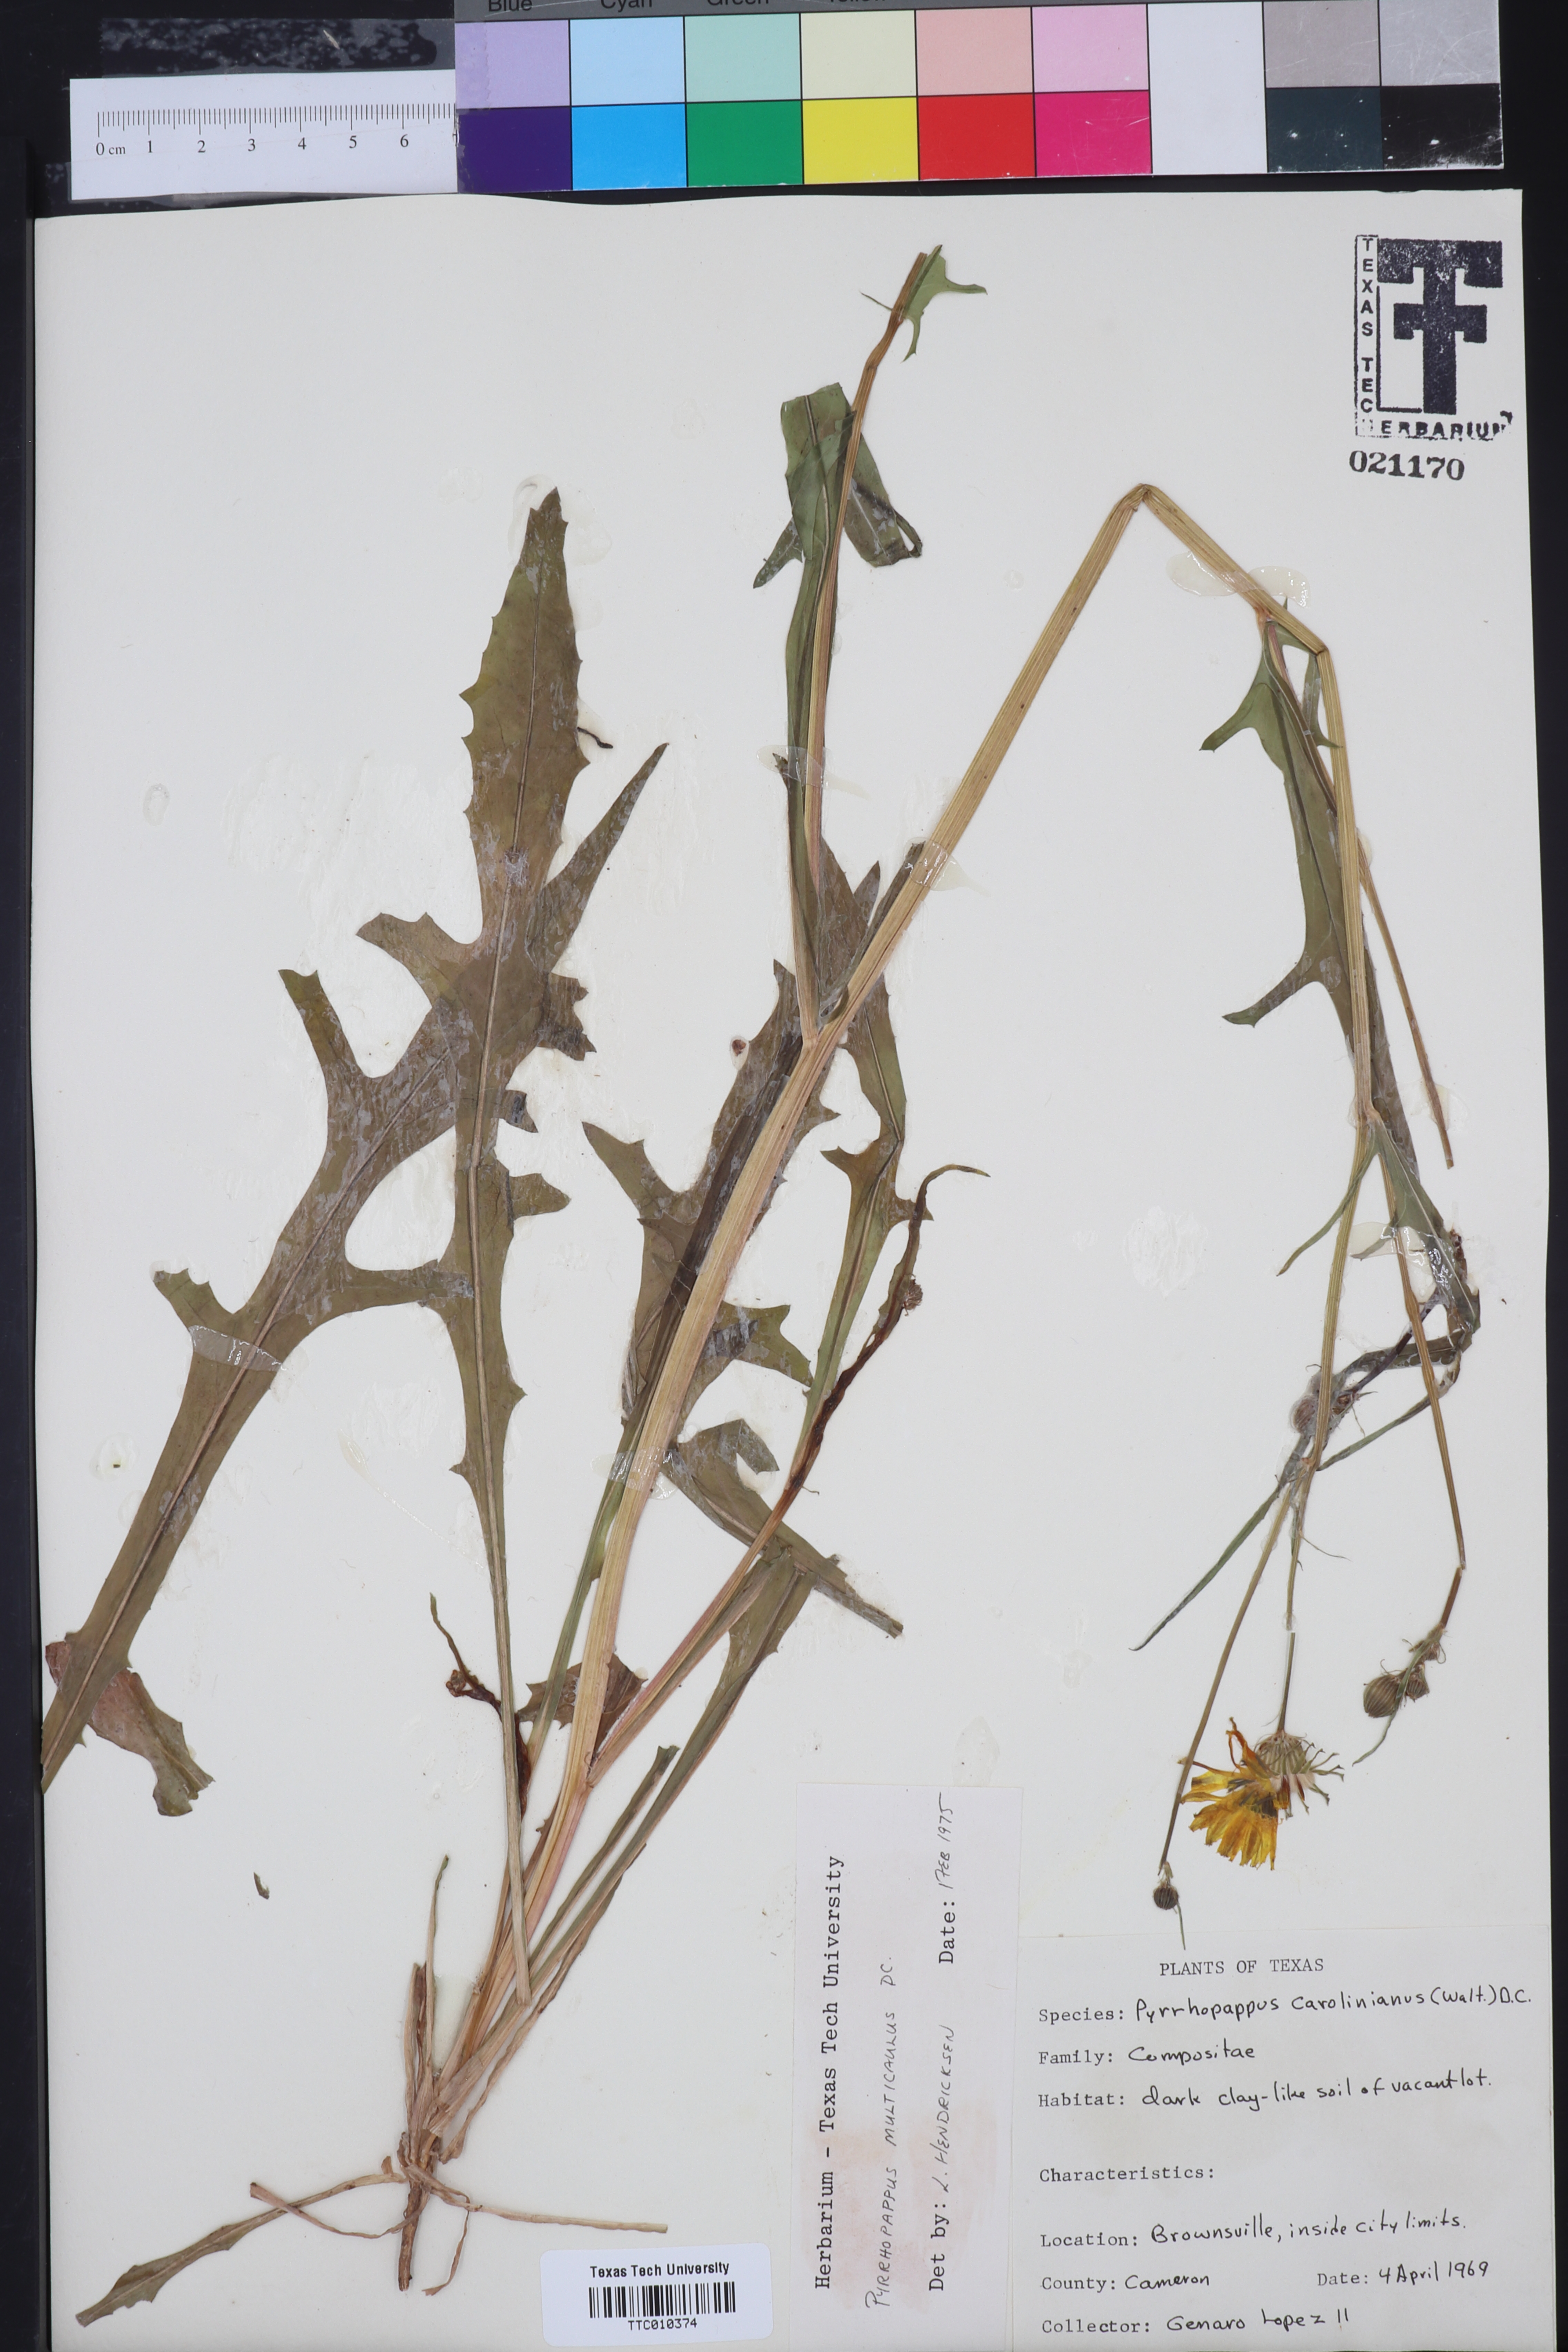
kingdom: Plantae
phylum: Tracheophyta
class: Magnoliopsida
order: Asterales
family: Asteraceae
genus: Pyrrhopappus
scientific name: Pyrrhopappus pauciflorus
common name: Texas false dandelion
